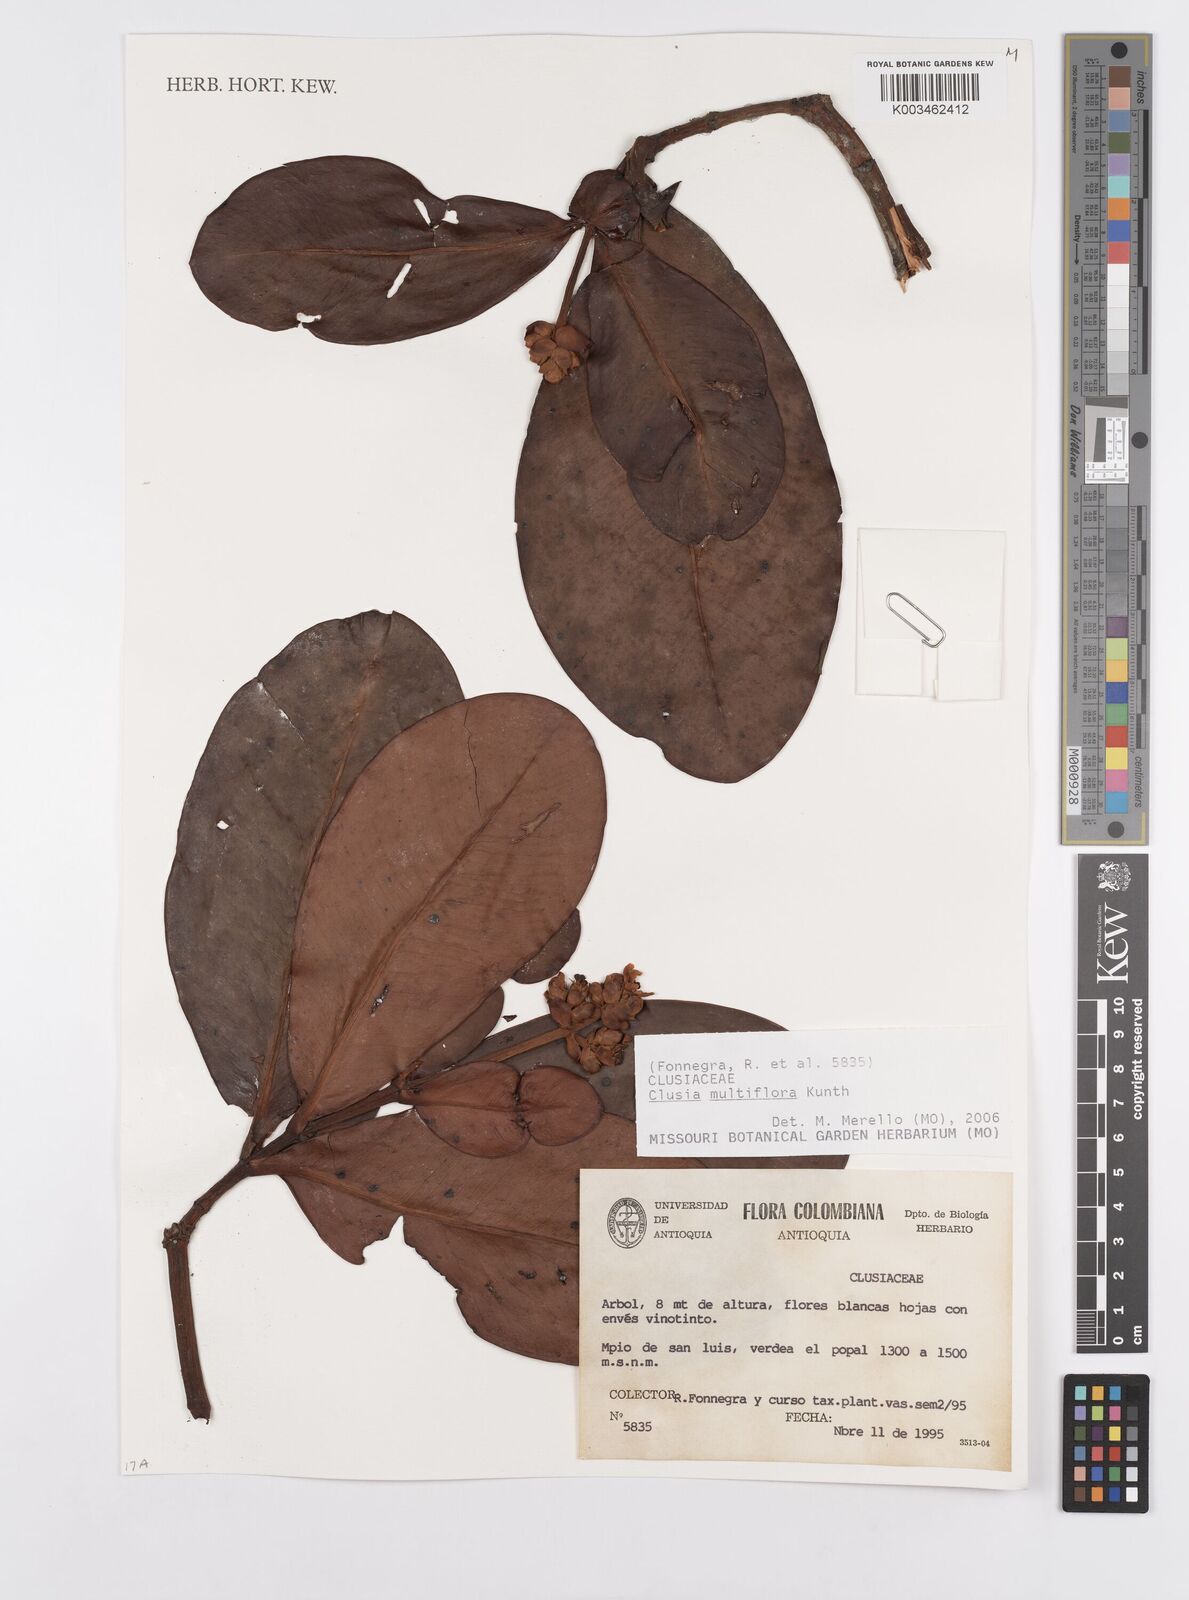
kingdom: Plantae
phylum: Tracheophyta
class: Magnoliopsida
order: Malpighiales
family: Clusiaceae
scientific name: Clusiaceae
